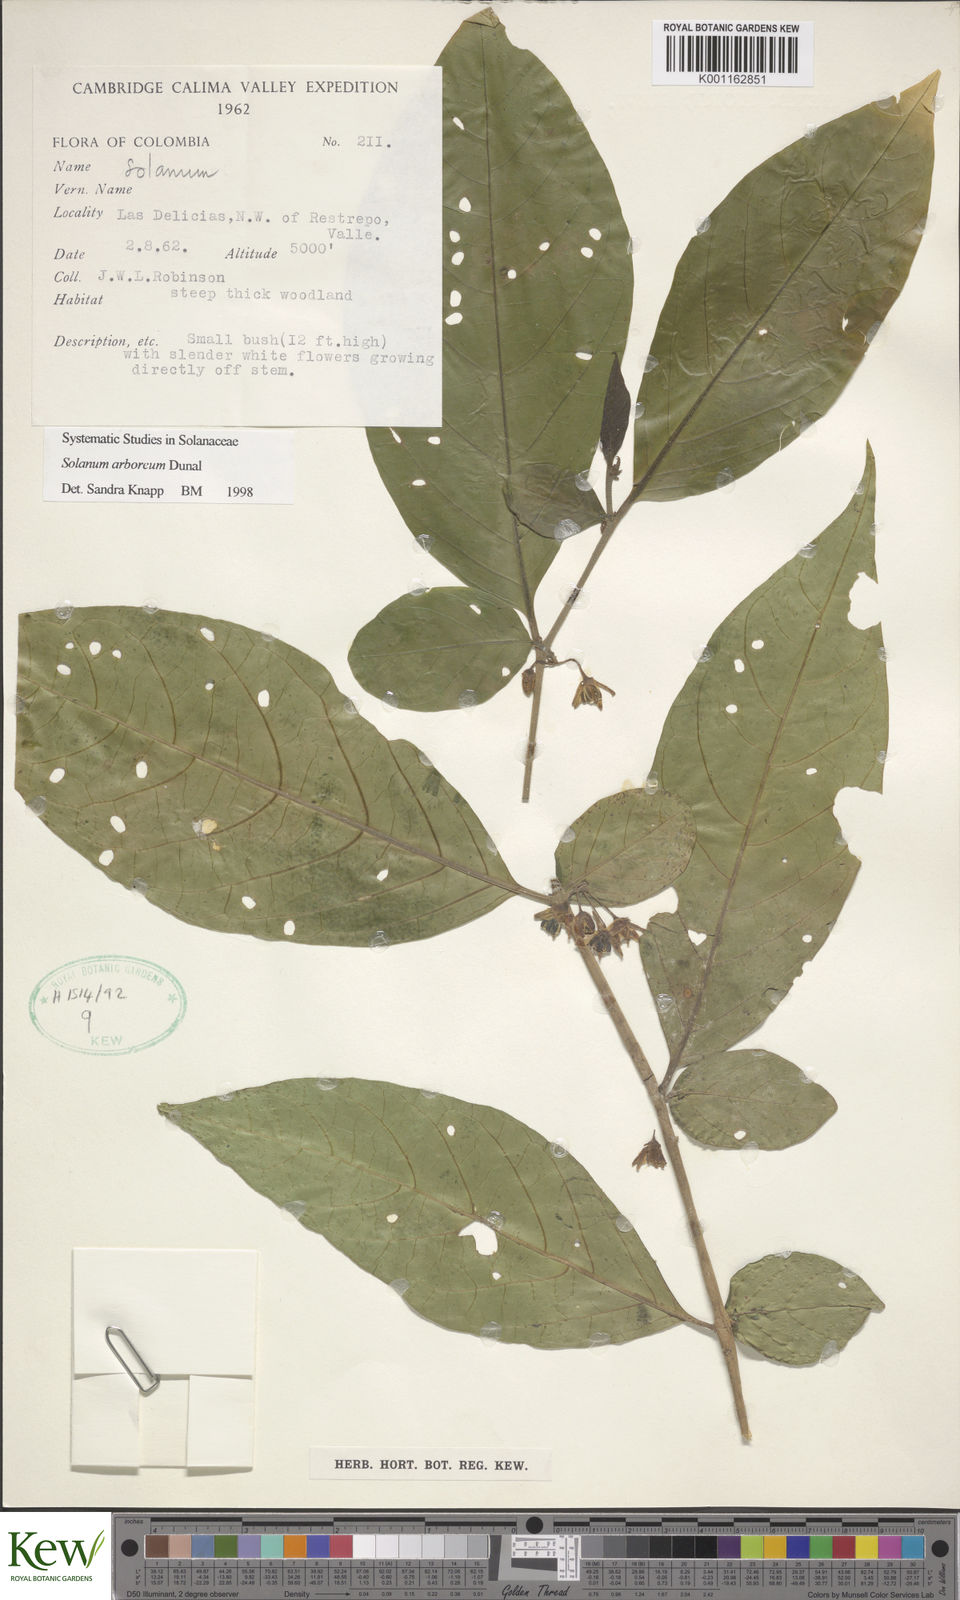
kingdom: Plantae
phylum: Tracheophyta
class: Magnoliopsida
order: Solanales
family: Solanaceae
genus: Solanum
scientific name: Solanum arboreum
